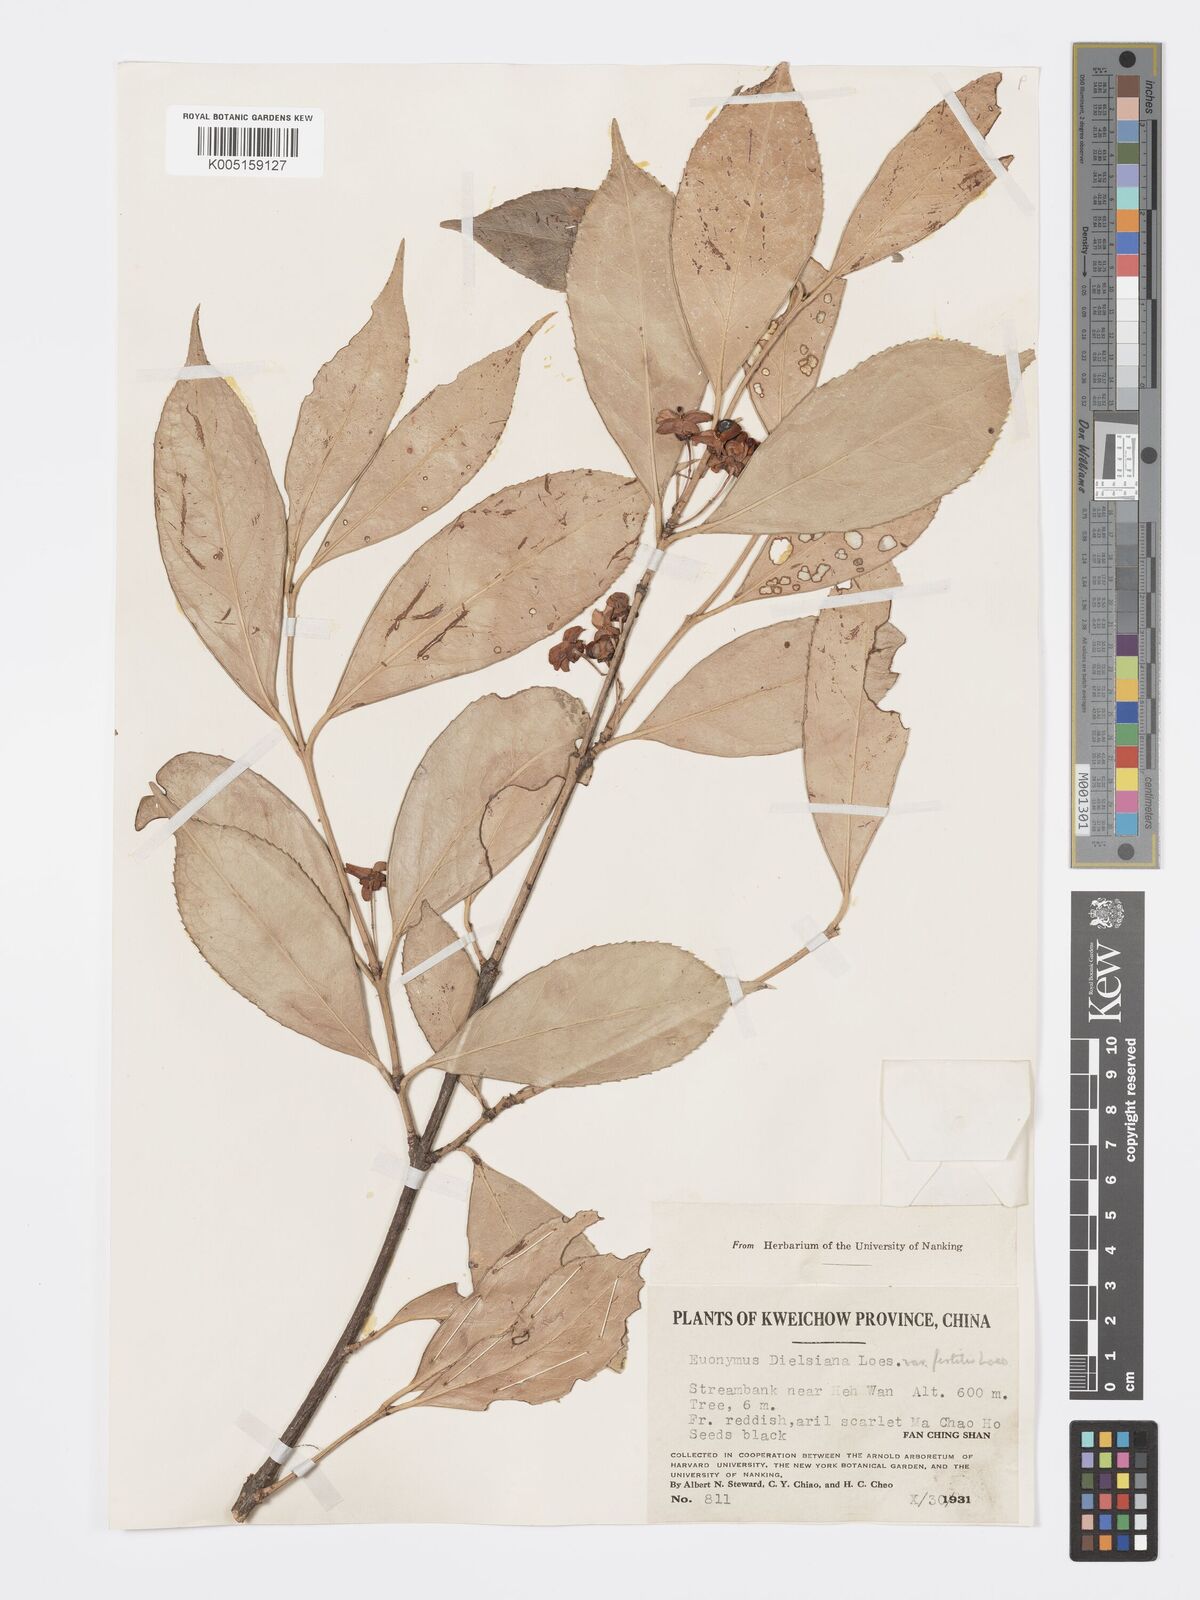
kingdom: Plantae
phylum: Tracheophyta
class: Magnoliopsida
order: Celastrales
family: Celastraceae
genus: Euonymus
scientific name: Euonymus dielsianus
